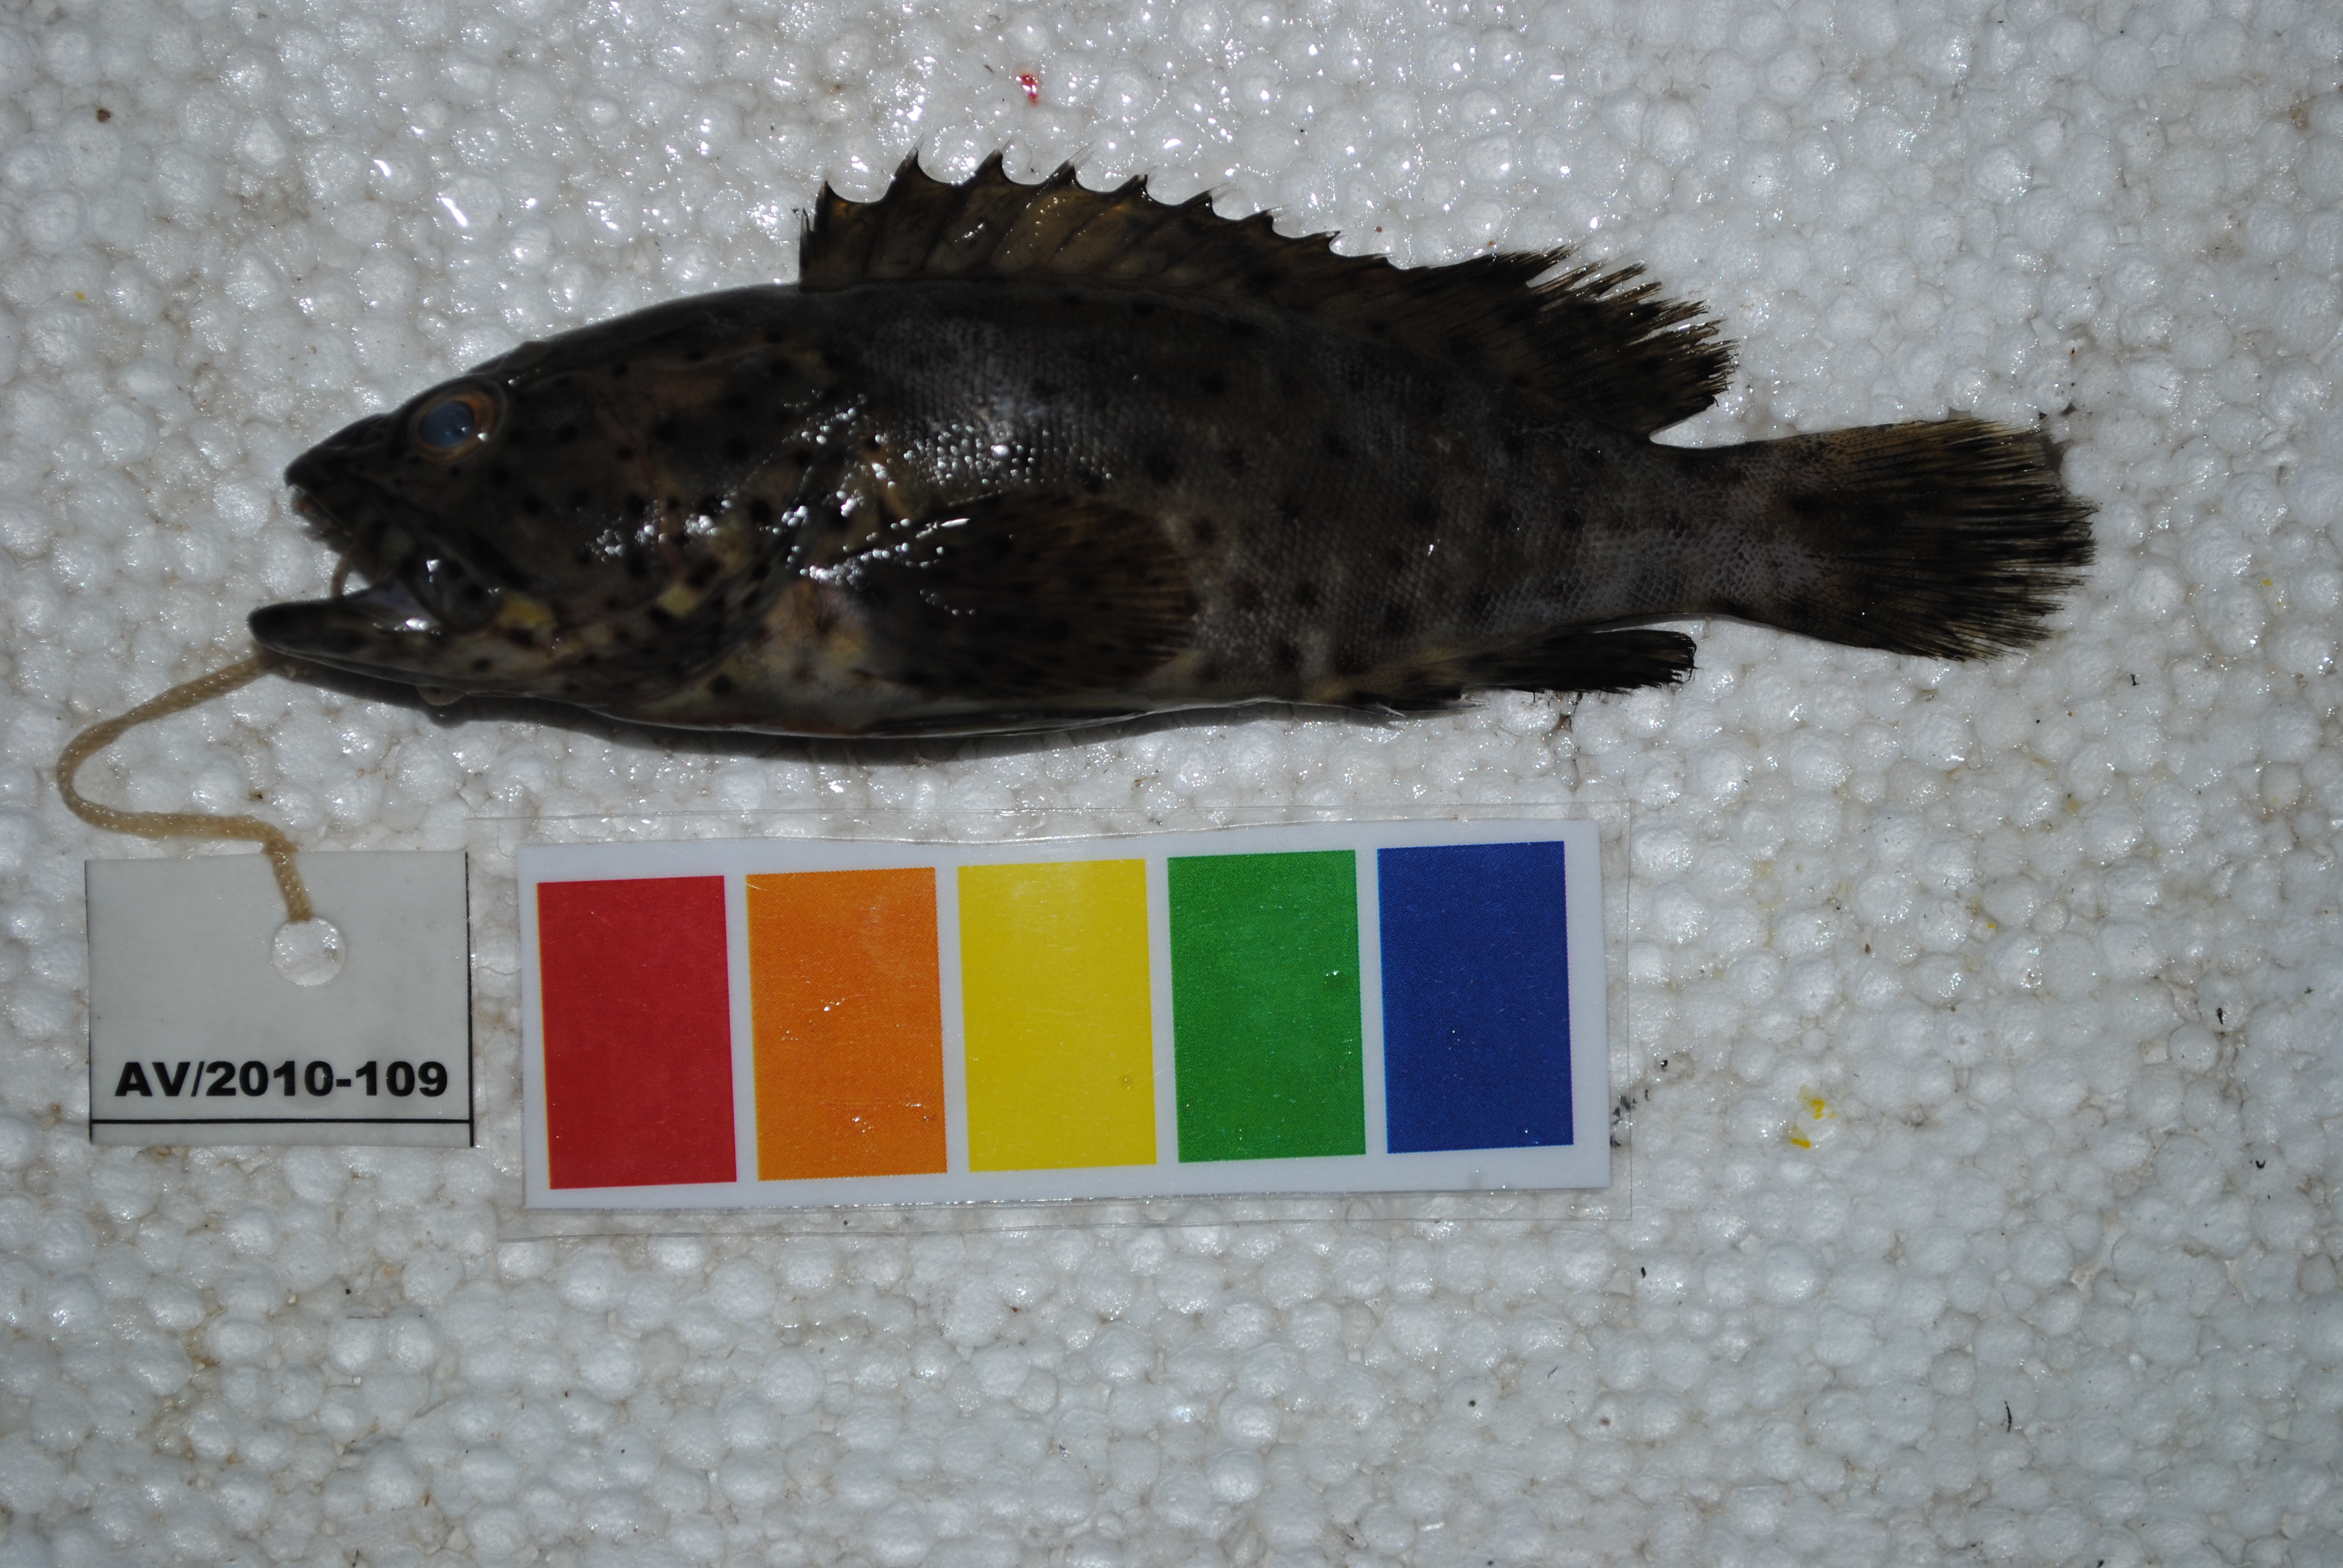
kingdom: Animalia
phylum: Chordata
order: Perciformes
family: Serranidae
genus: Epinephelus
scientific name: Epinephelus malabaricus
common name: Malabar grouper
